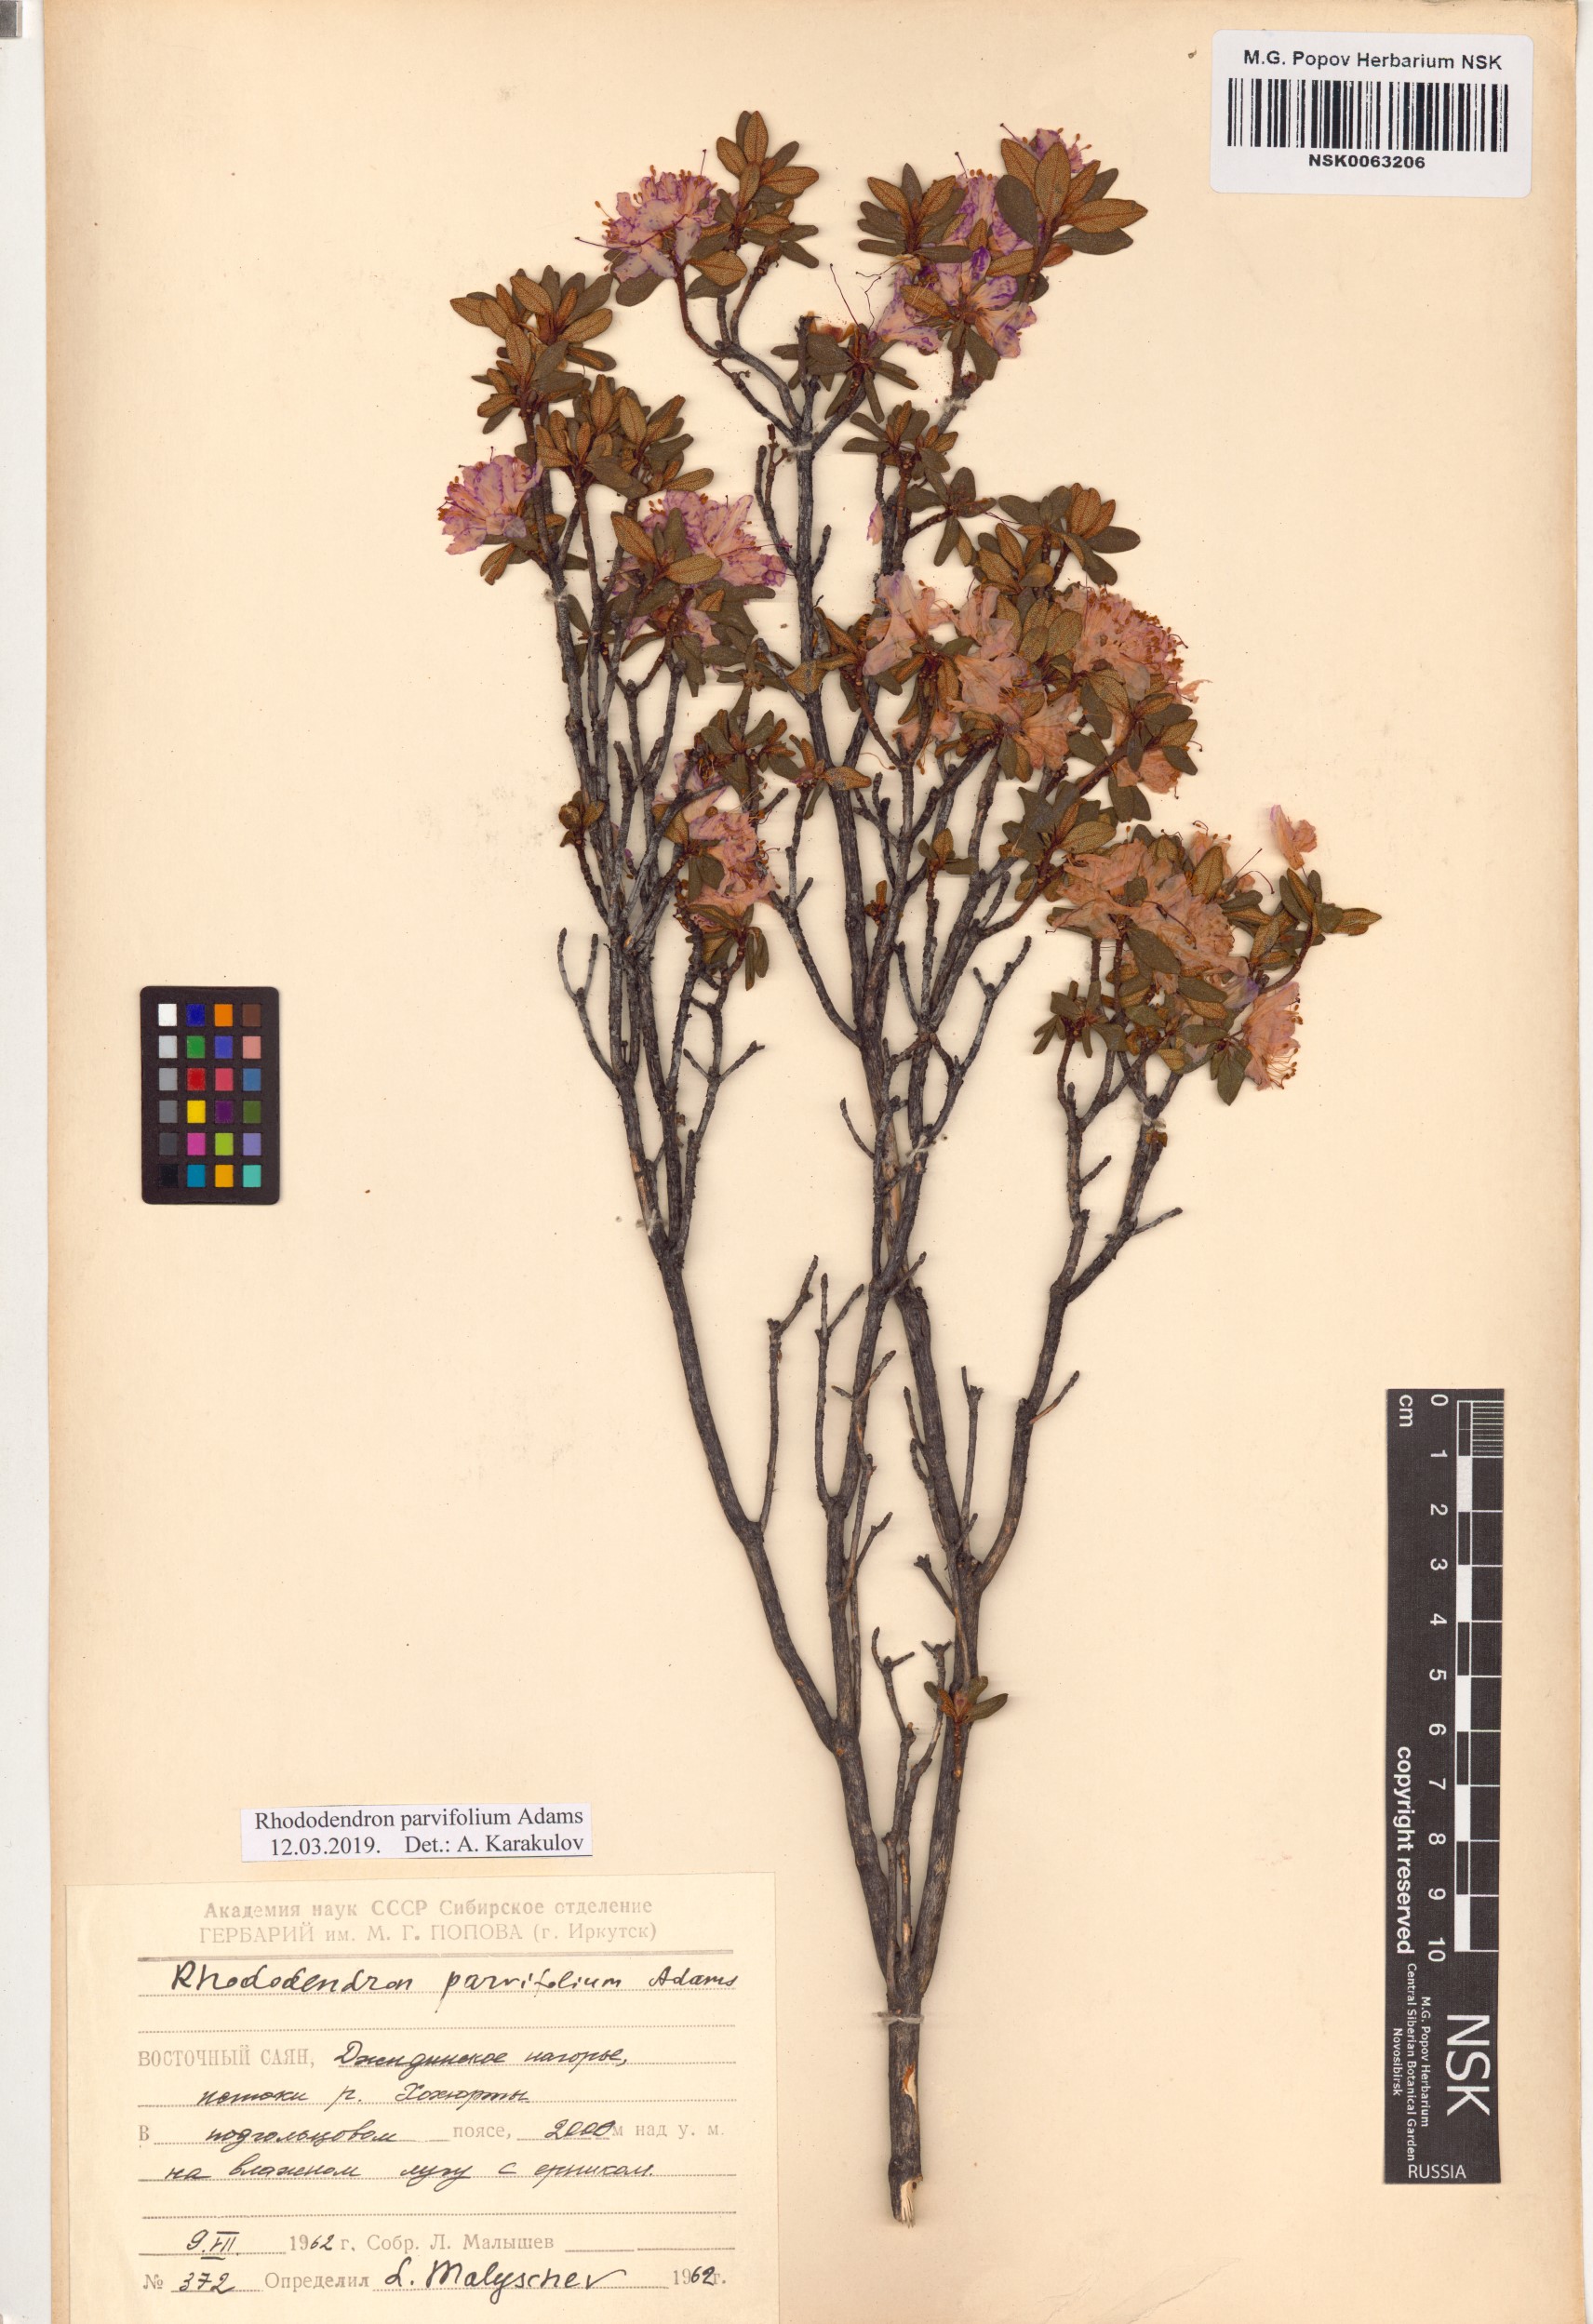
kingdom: Plantae
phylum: Tracheophyta
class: Magnoliopsida
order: Ericales
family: Ericaceae
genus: Rhododendron
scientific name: Rhododendron parvifolium
